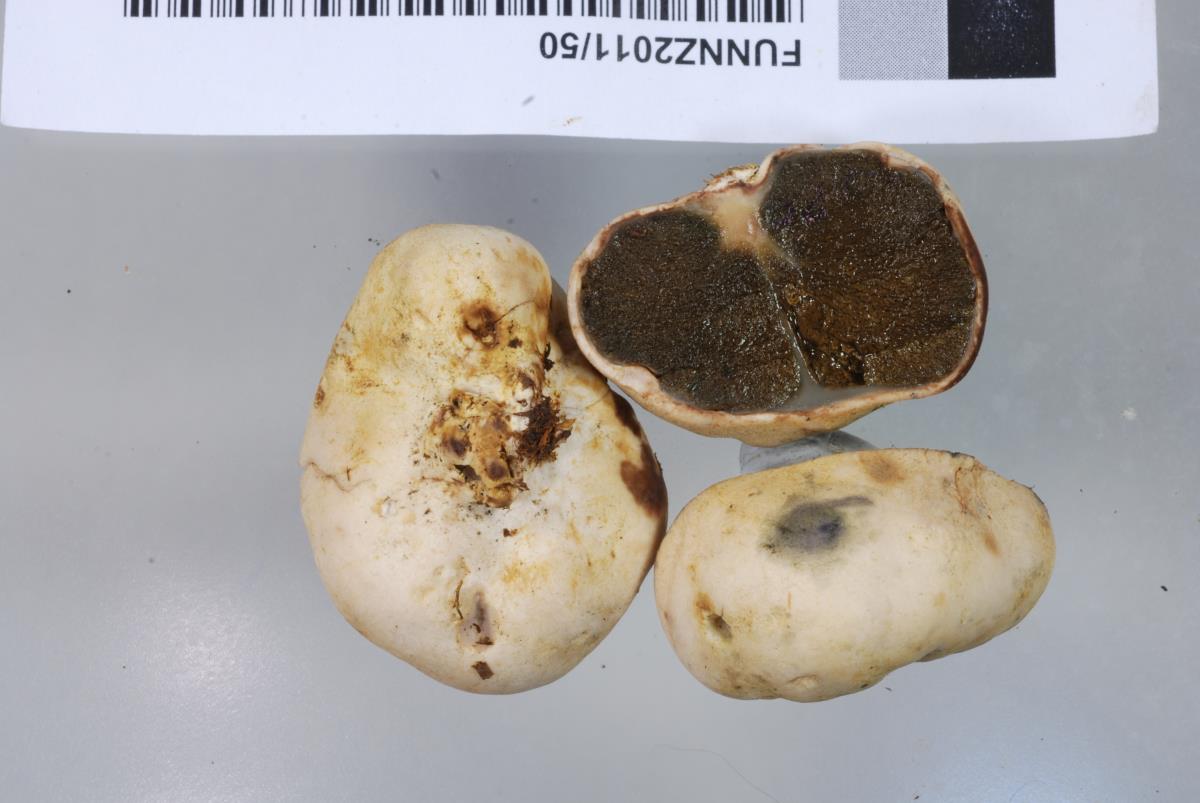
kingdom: Fungi
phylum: Basidiomycota
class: Agaricomycetes
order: Hysterangiales
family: Gallaceaceae
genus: Gallacea
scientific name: Gallacea eburnea
